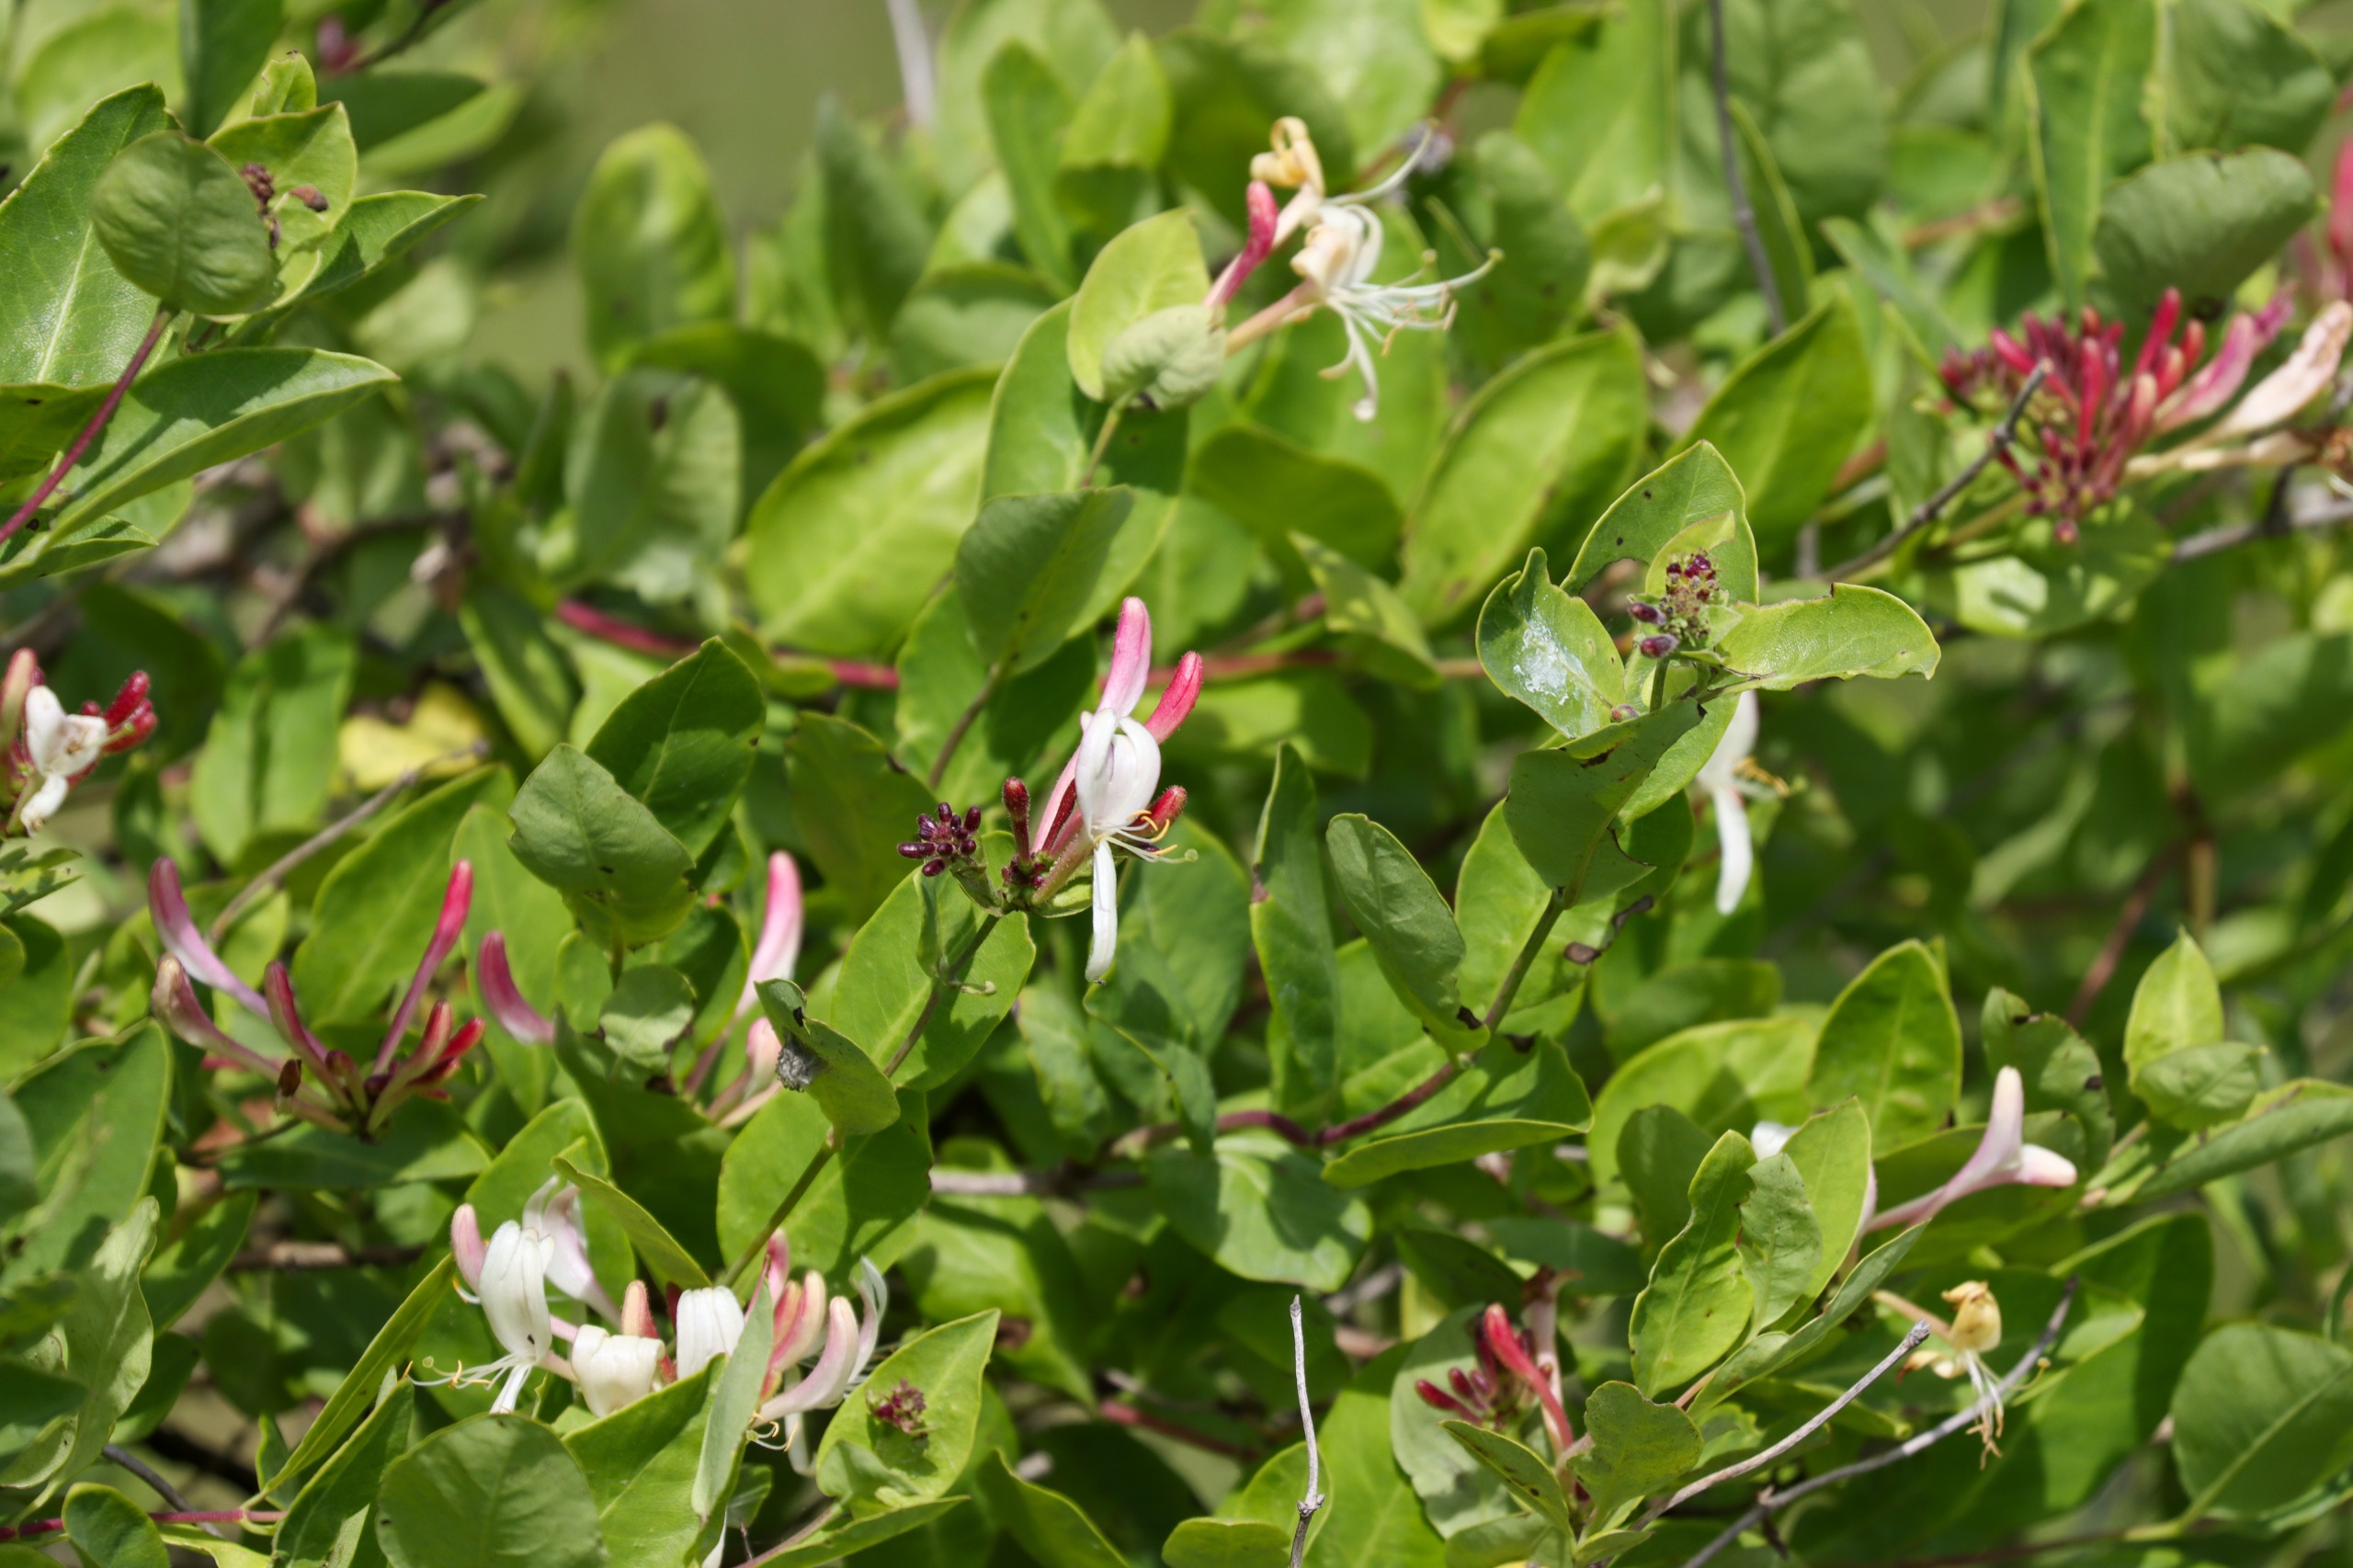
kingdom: Plantae
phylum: Tracheophyta
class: Magnoliopsida
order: Dipsacales
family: Caprifoliaceae
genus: Lonicera
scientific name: Lonicera periclymenum
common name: Almindelig gedeblad
